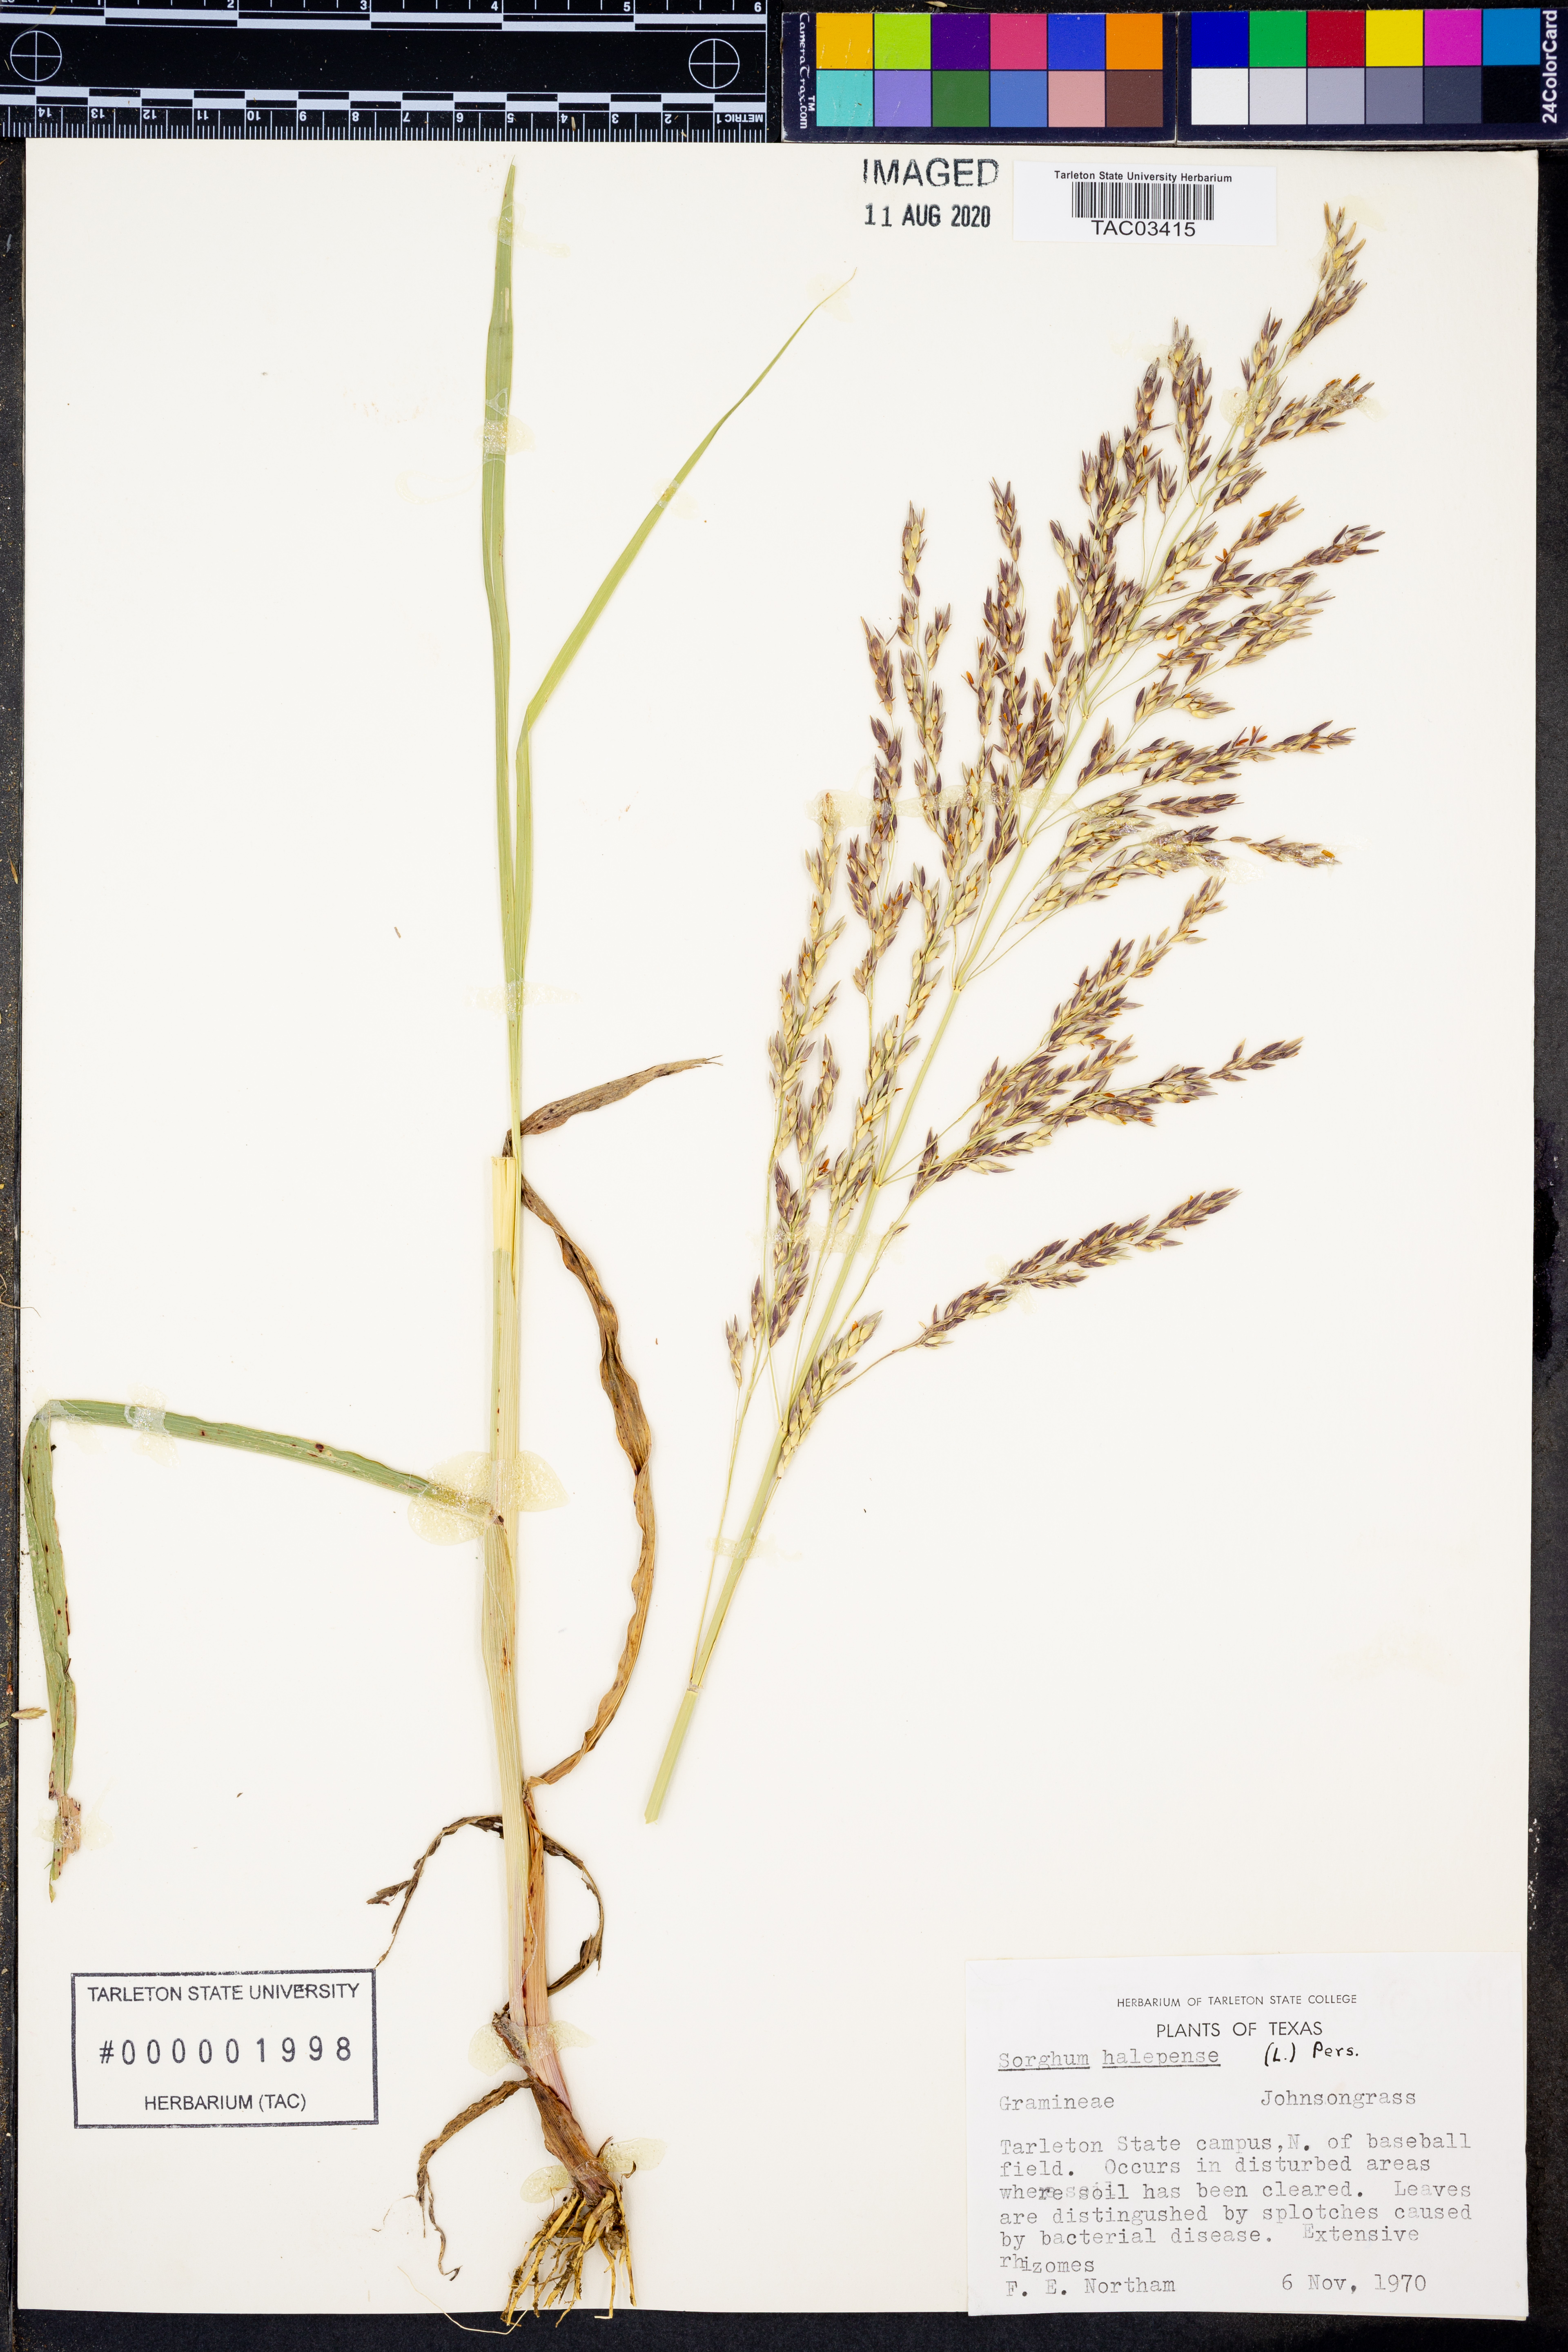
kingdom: Plantae
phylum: Tracheophyta
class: Liliopsida
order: Poales
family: Poaceae
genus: Sorghum
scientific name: Sorghum halepense
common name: Johnson-grass
